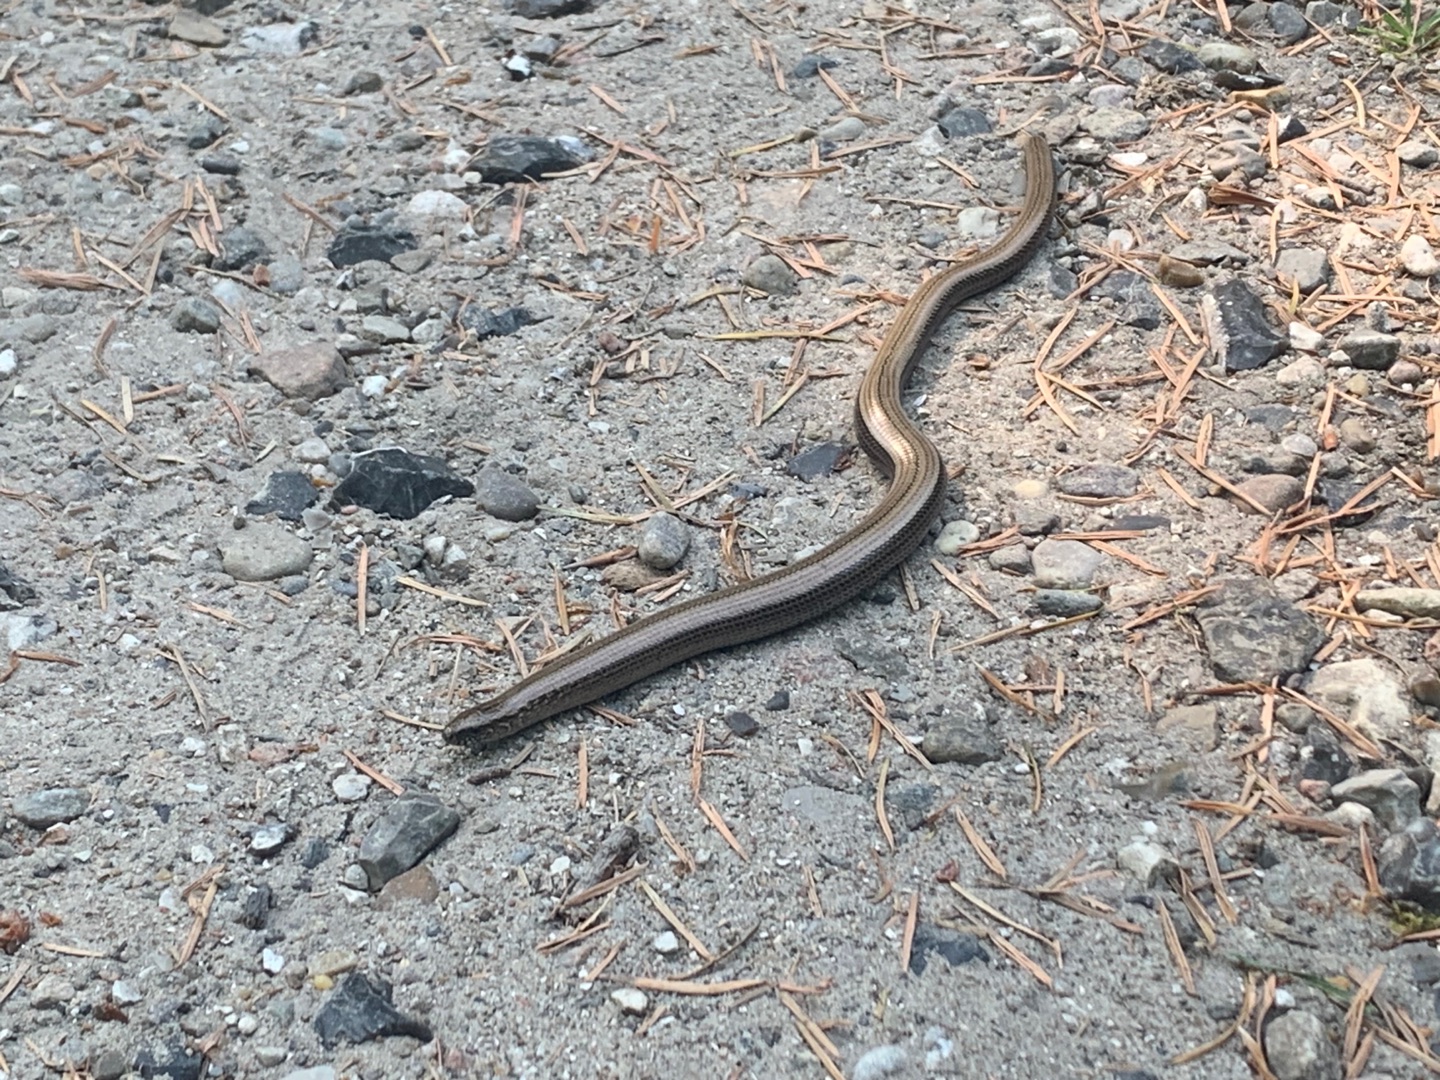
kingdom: Animalia
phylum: Chordata
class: Squamata
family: Anguidae
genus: Anguis
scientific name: Anguis fragilis
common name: Stålorm
